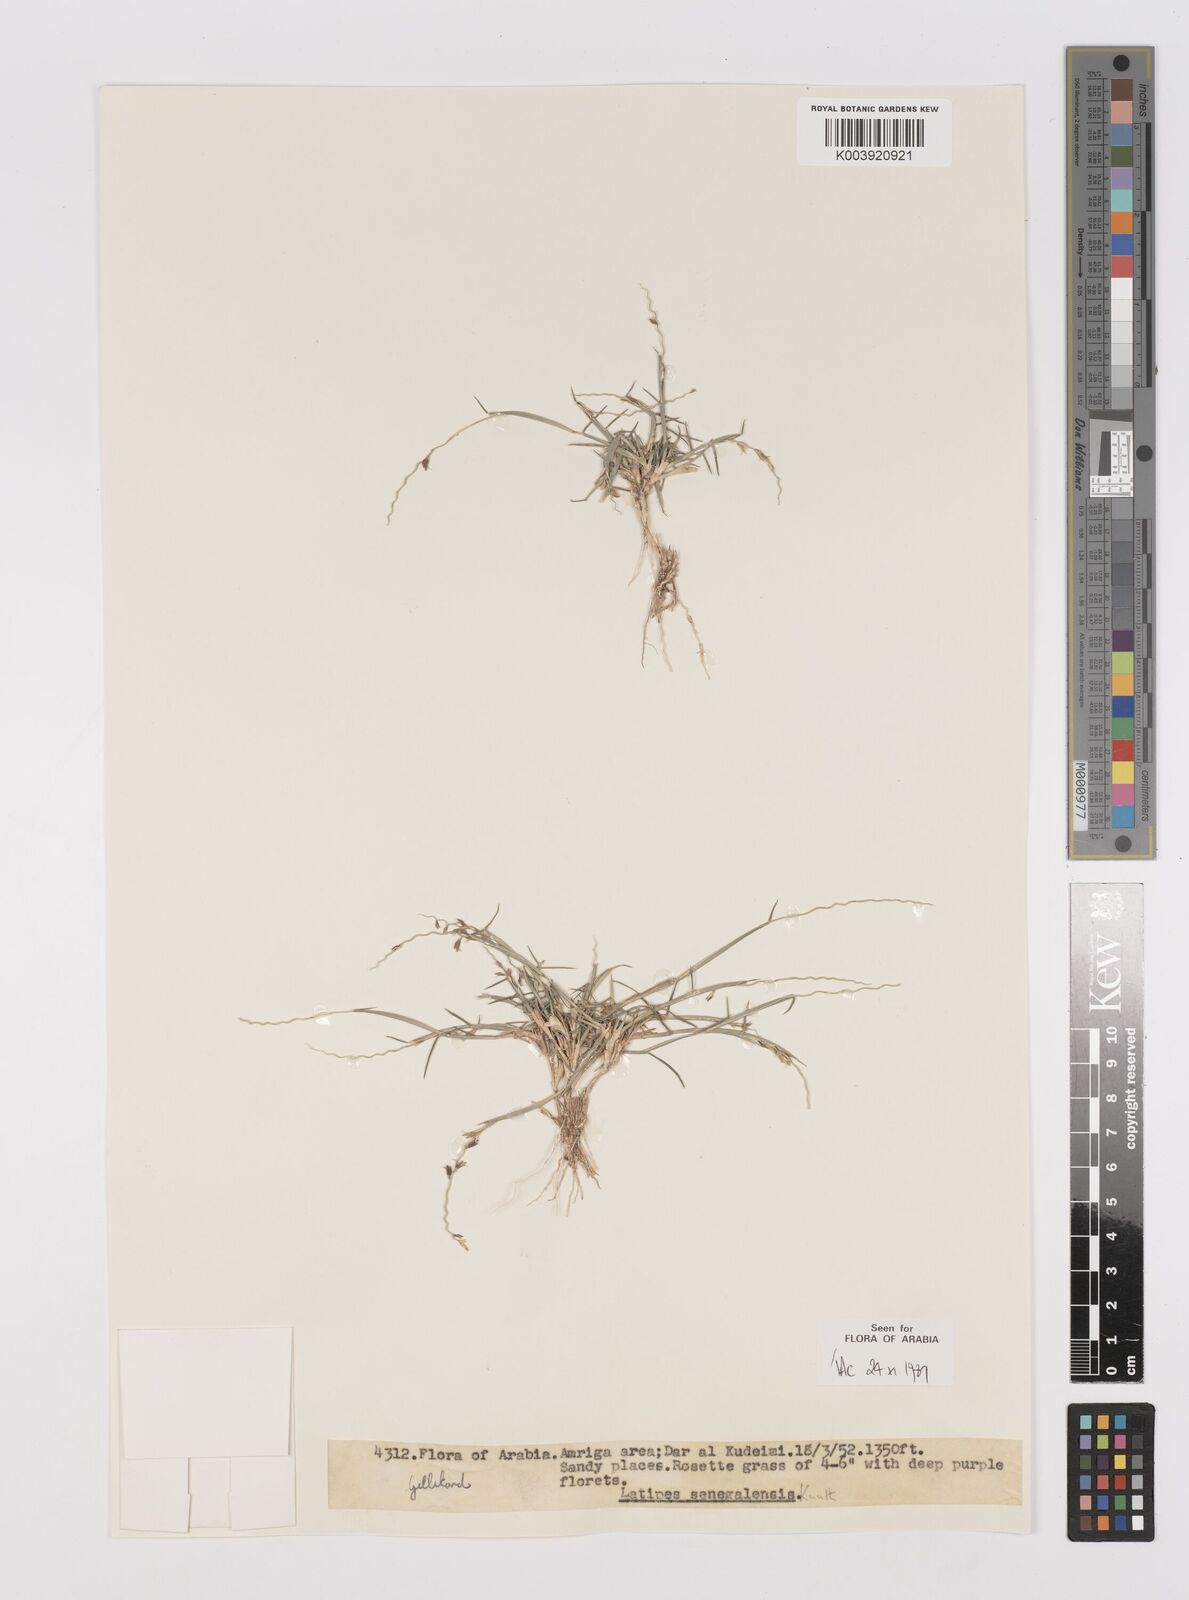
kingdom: Plantae
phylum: Tracheophyta
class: Liliopsida
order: Poales
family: Poaceae
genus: Leptothrium
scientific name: Leptothrium senegalense
